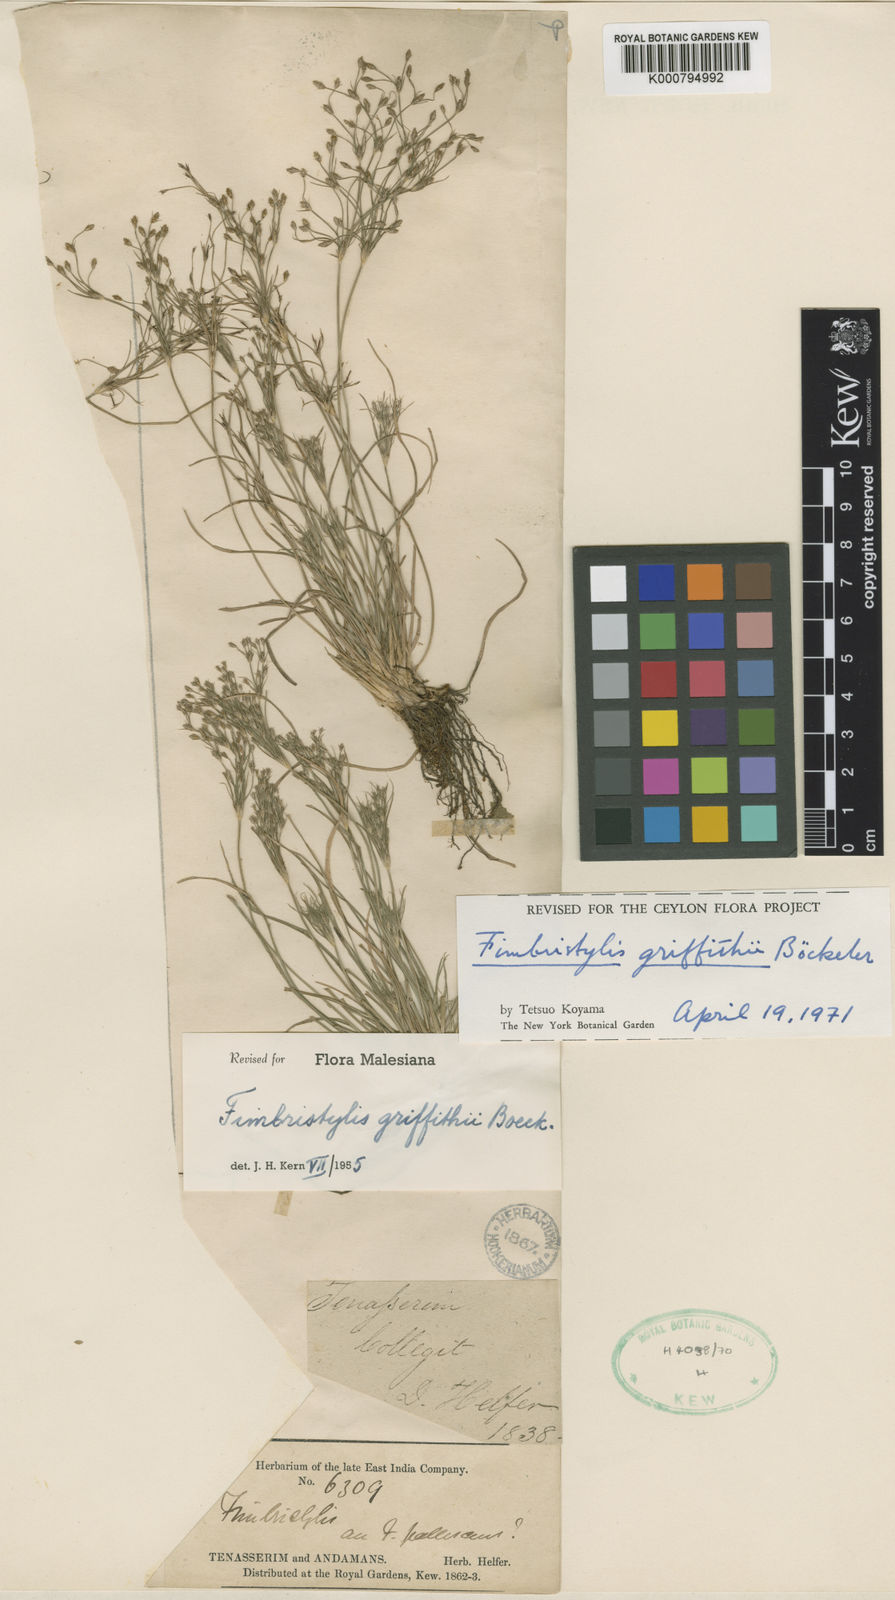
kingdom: Plantae
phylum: Tracheophyta
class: Liliopsida
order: Poales
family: Cyperaceae
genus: Fimbristylis
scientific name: Fimbristylis griffithii
